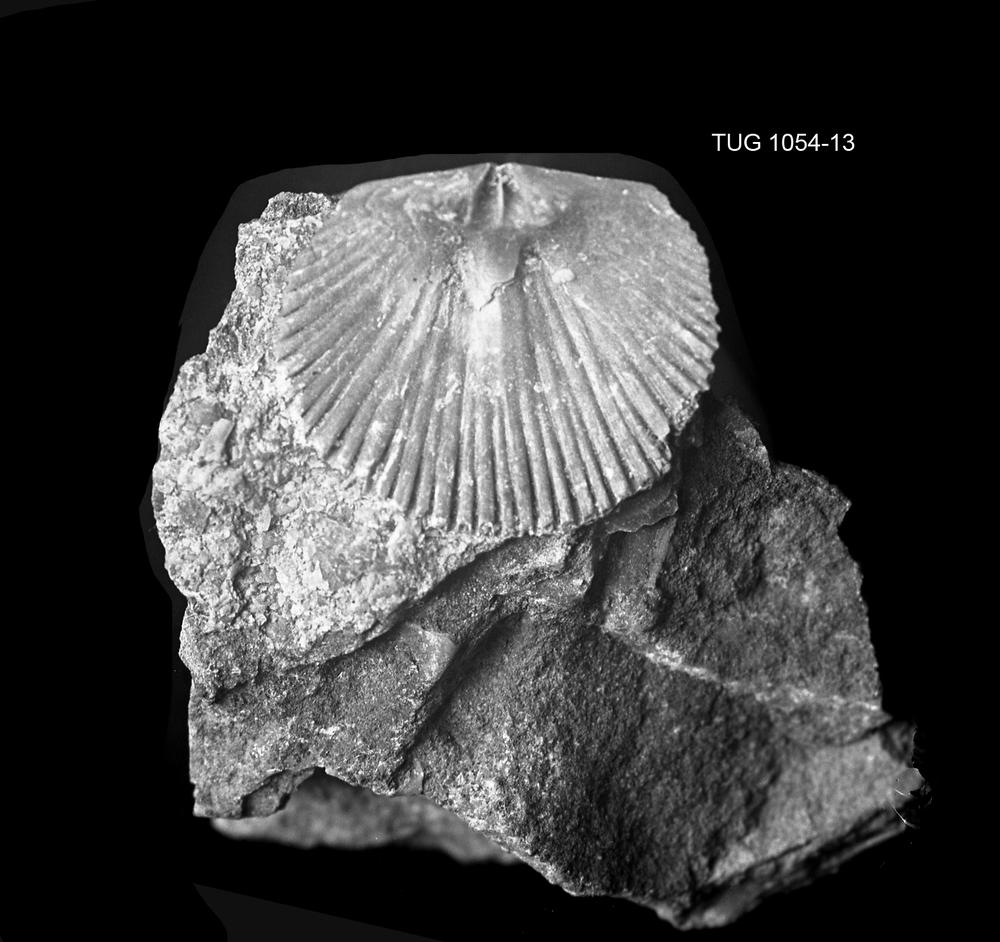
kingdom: Animalia
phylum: Brachiopoda
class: Rhynchonellata
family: Orthidae
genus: Sivorthis
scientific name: Sivorthis
